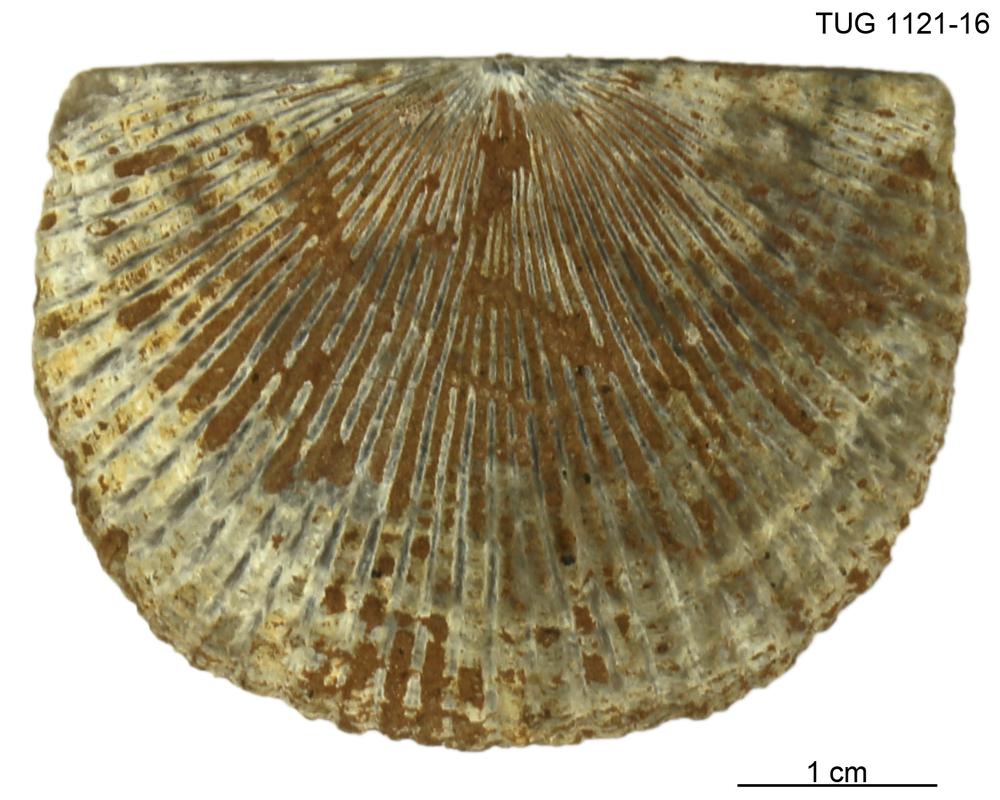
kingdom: Animalia
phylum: Brachiopoda
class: Rhynchonellata
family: Orthidae
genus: Cyrtonotella
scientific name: Cyrtonotella
